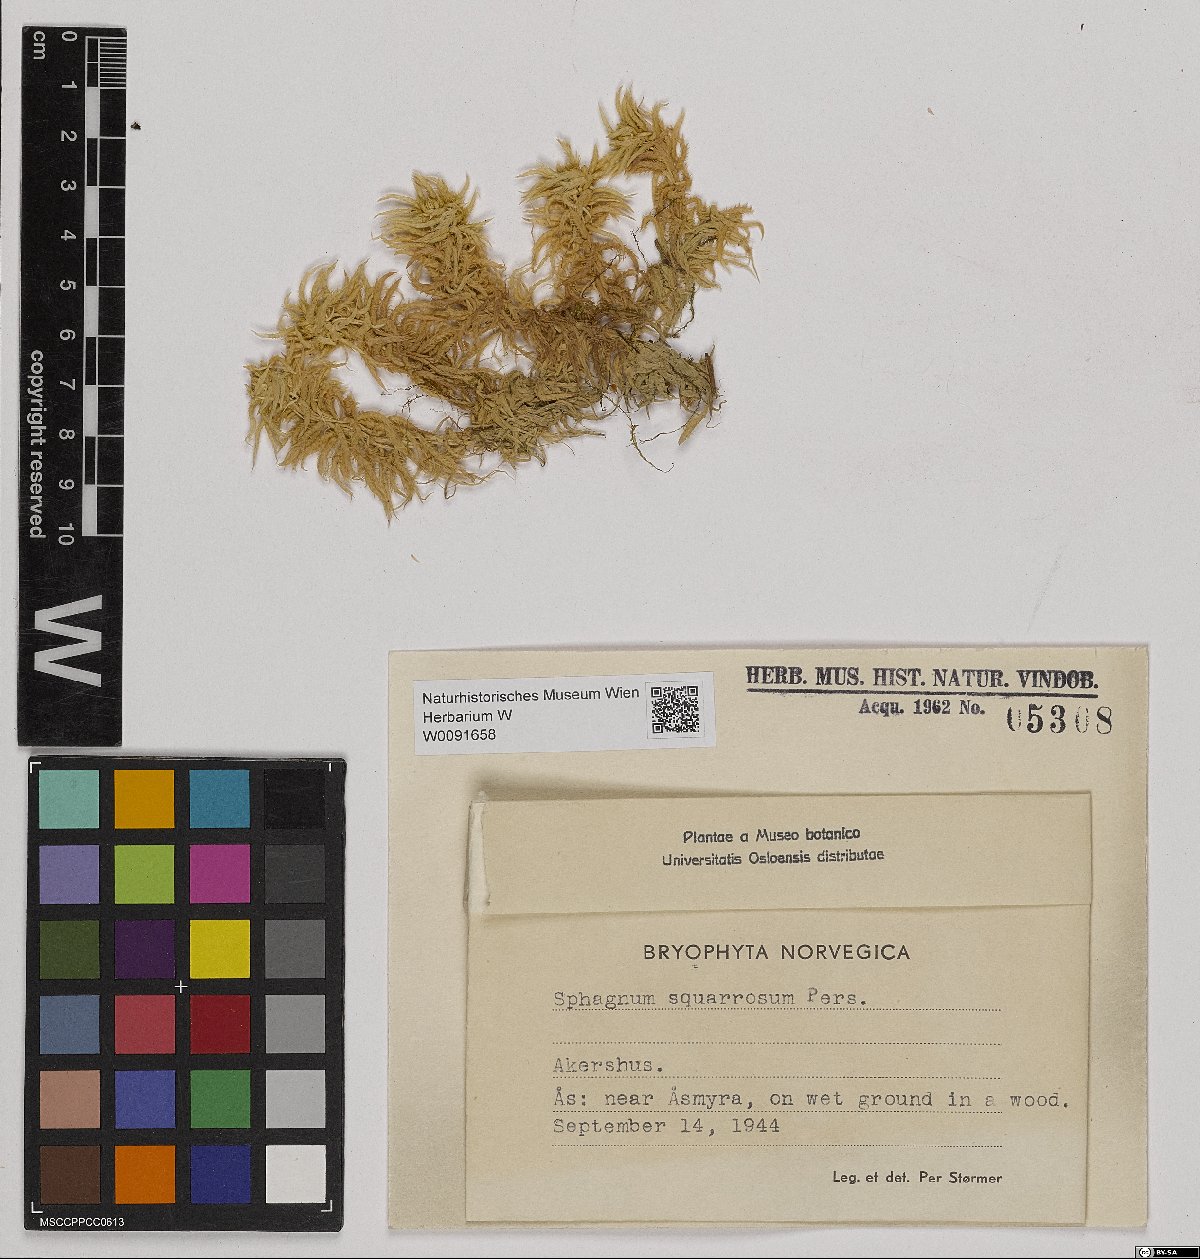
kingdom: Plantae
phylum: Bryophyta
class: Sphagnopsida
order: Sphagnales
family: Sphagnaceae
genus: Sphagnum
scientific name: Sphagnum squarrosum
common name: Shaggy peat moss
